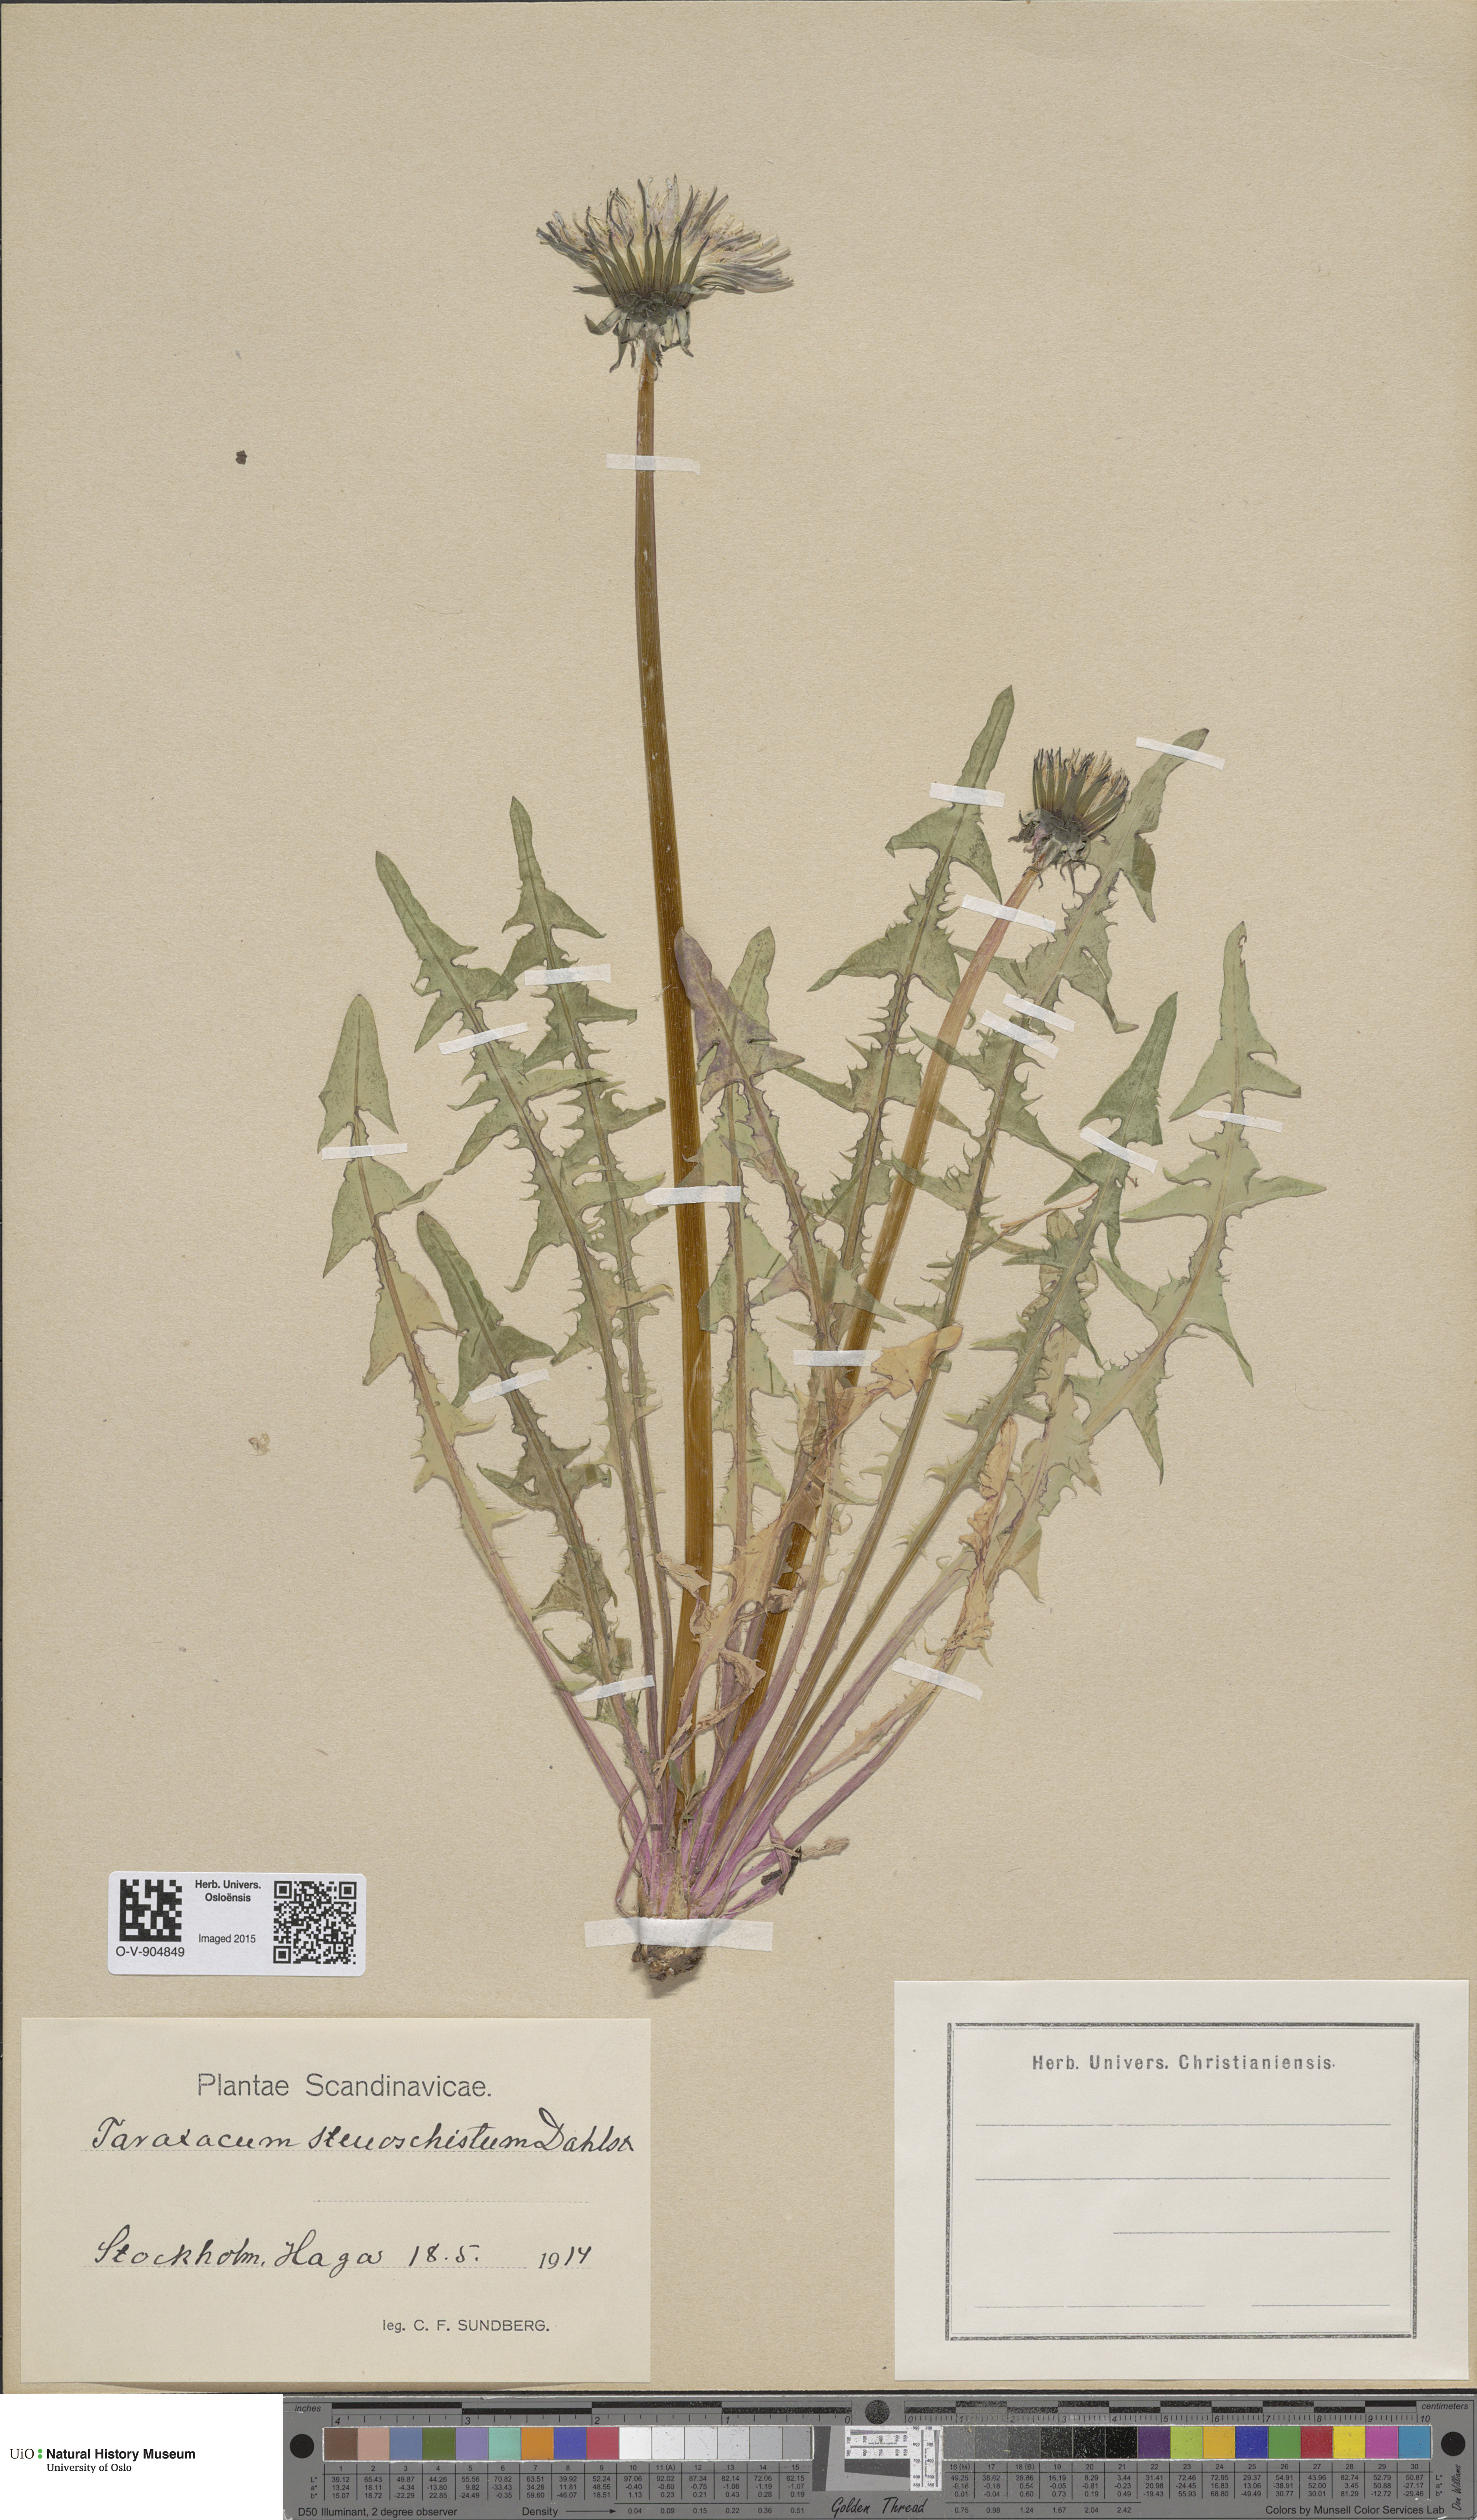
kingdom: Plantae
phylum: Tracheophyta
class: Magnoliopsida
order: Asterales
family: Asteraceae
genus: Taraxacum
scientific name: Taraxacum stenoschistum
